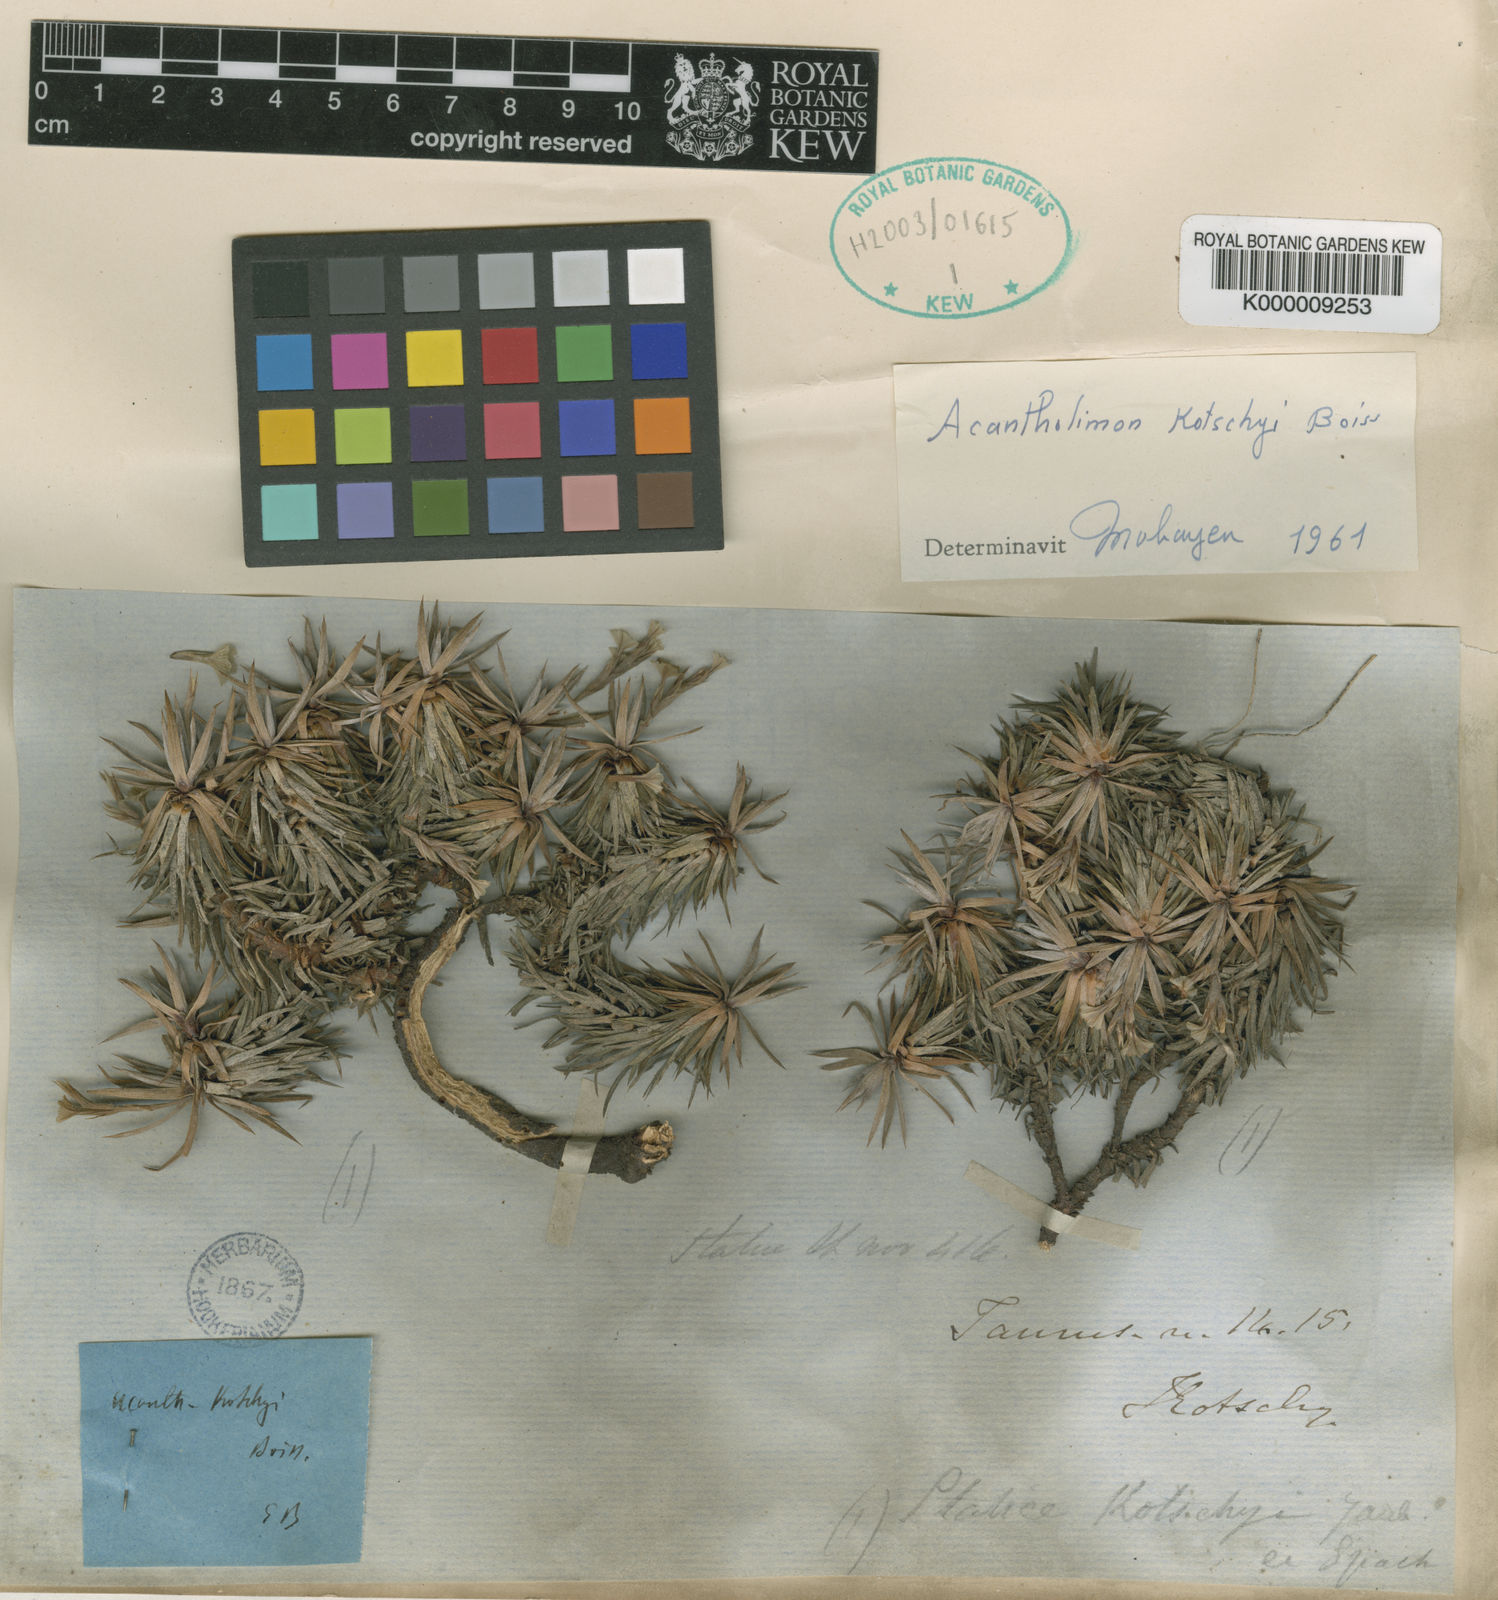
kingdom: Plantae
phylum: Tracheophyta
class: Magnoliopsida
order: Caryophyllales
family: Plumbaginaceae
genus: Acantholimon
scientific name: Acantholimon kotschyi
